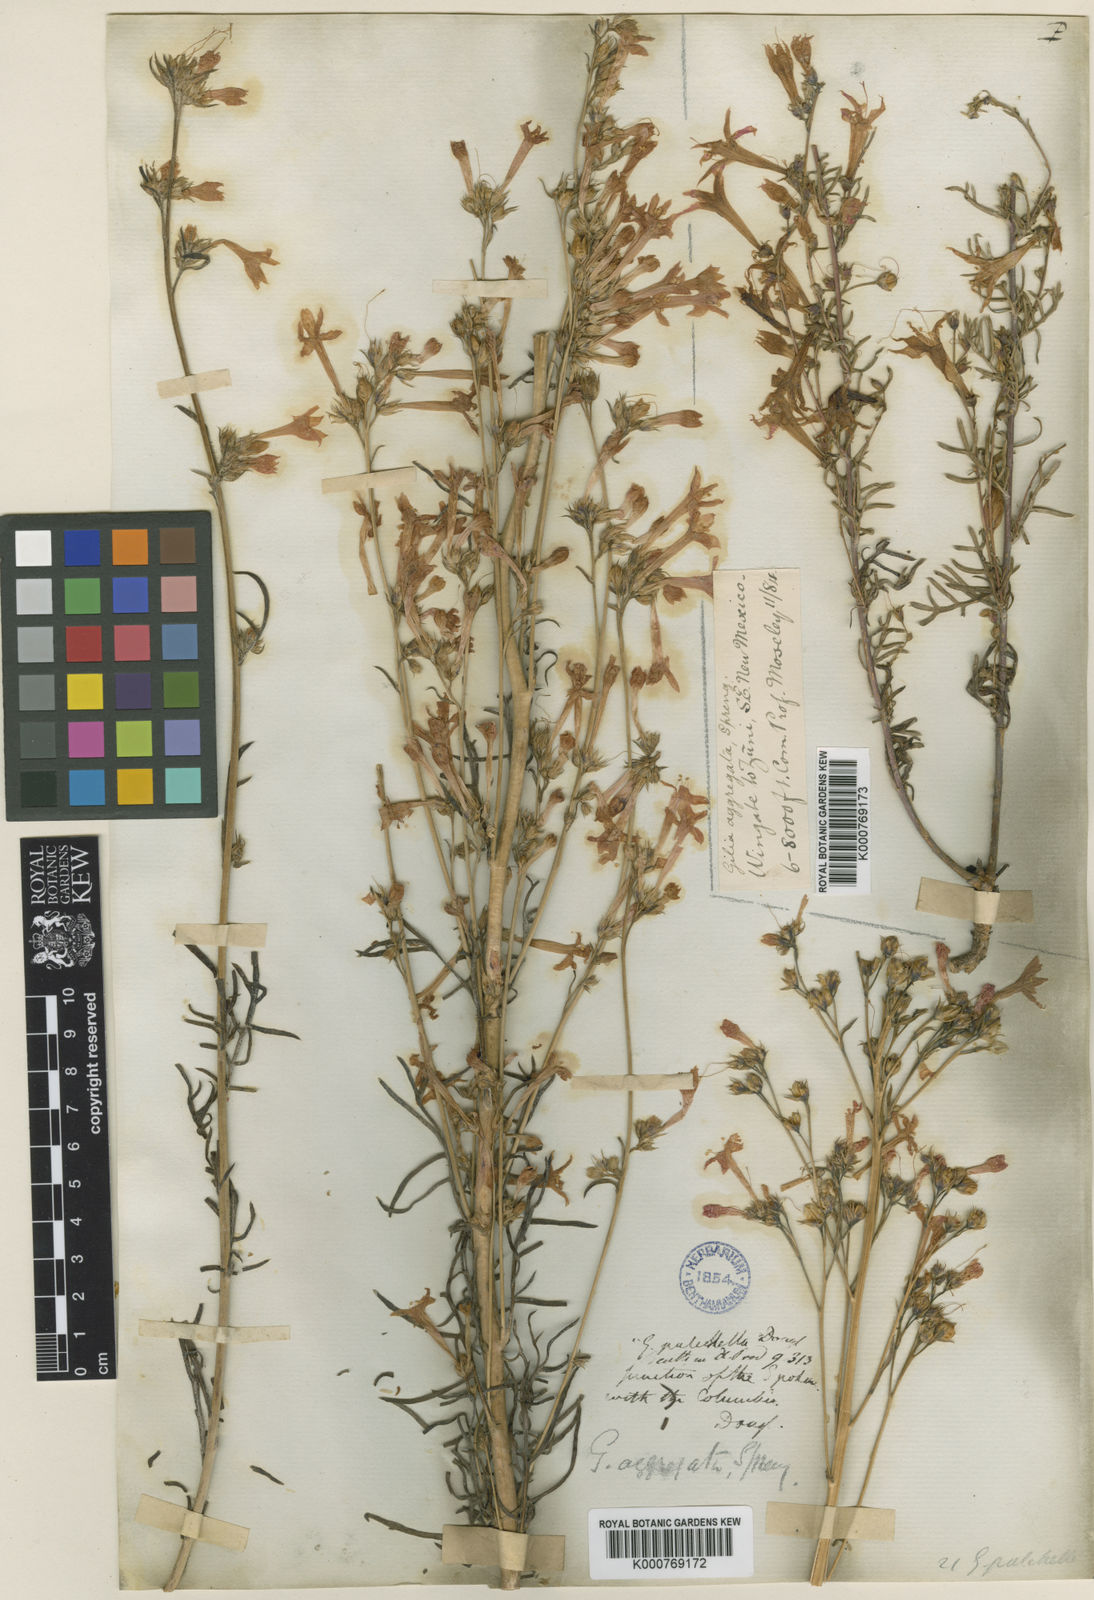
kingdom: Plantae
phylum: Tracheophyta
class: Magnoliopsida
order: Ericales
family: Polemoniaceae
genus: Ipomopsis
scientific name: Ipomopsis aggregata
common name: Scarlet gilia
